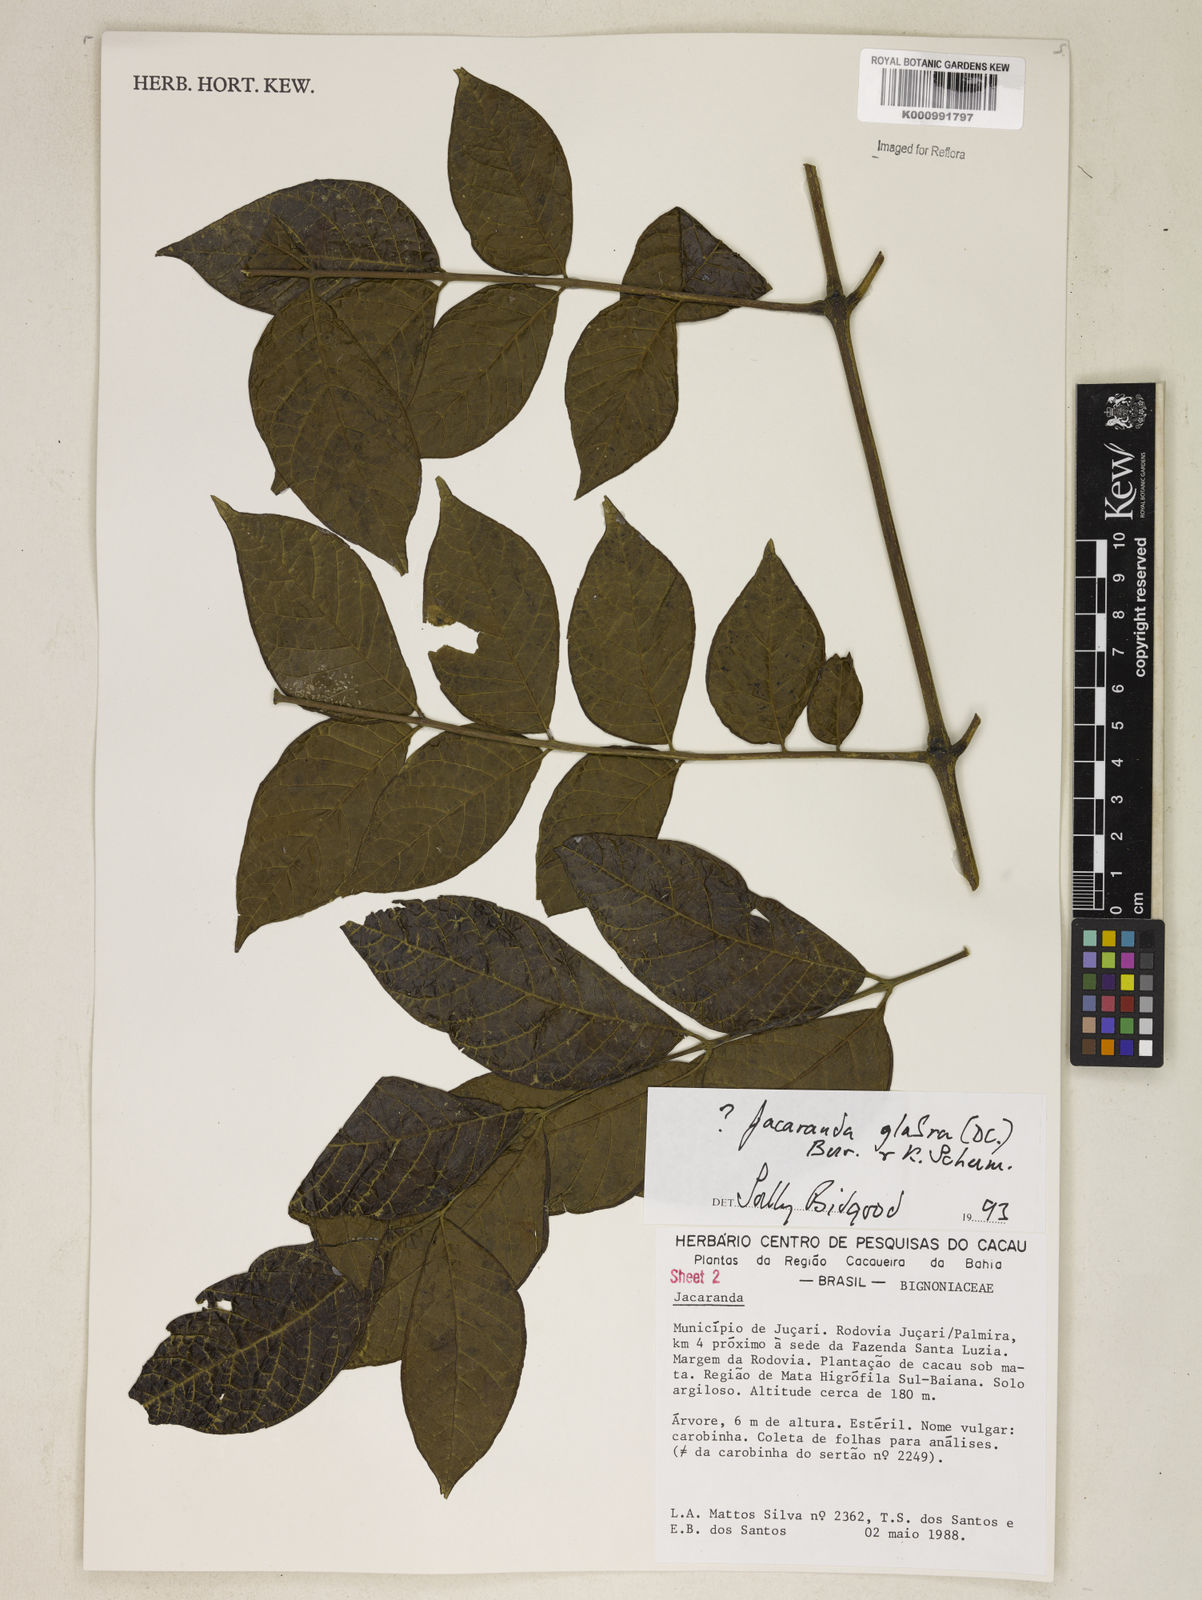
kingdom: Plantae
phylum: Tracheophyta
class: Magnoliopsida
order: Lamiales
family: Bignoniaceae
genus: Jacaranda
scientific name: Jacaranda glabra
